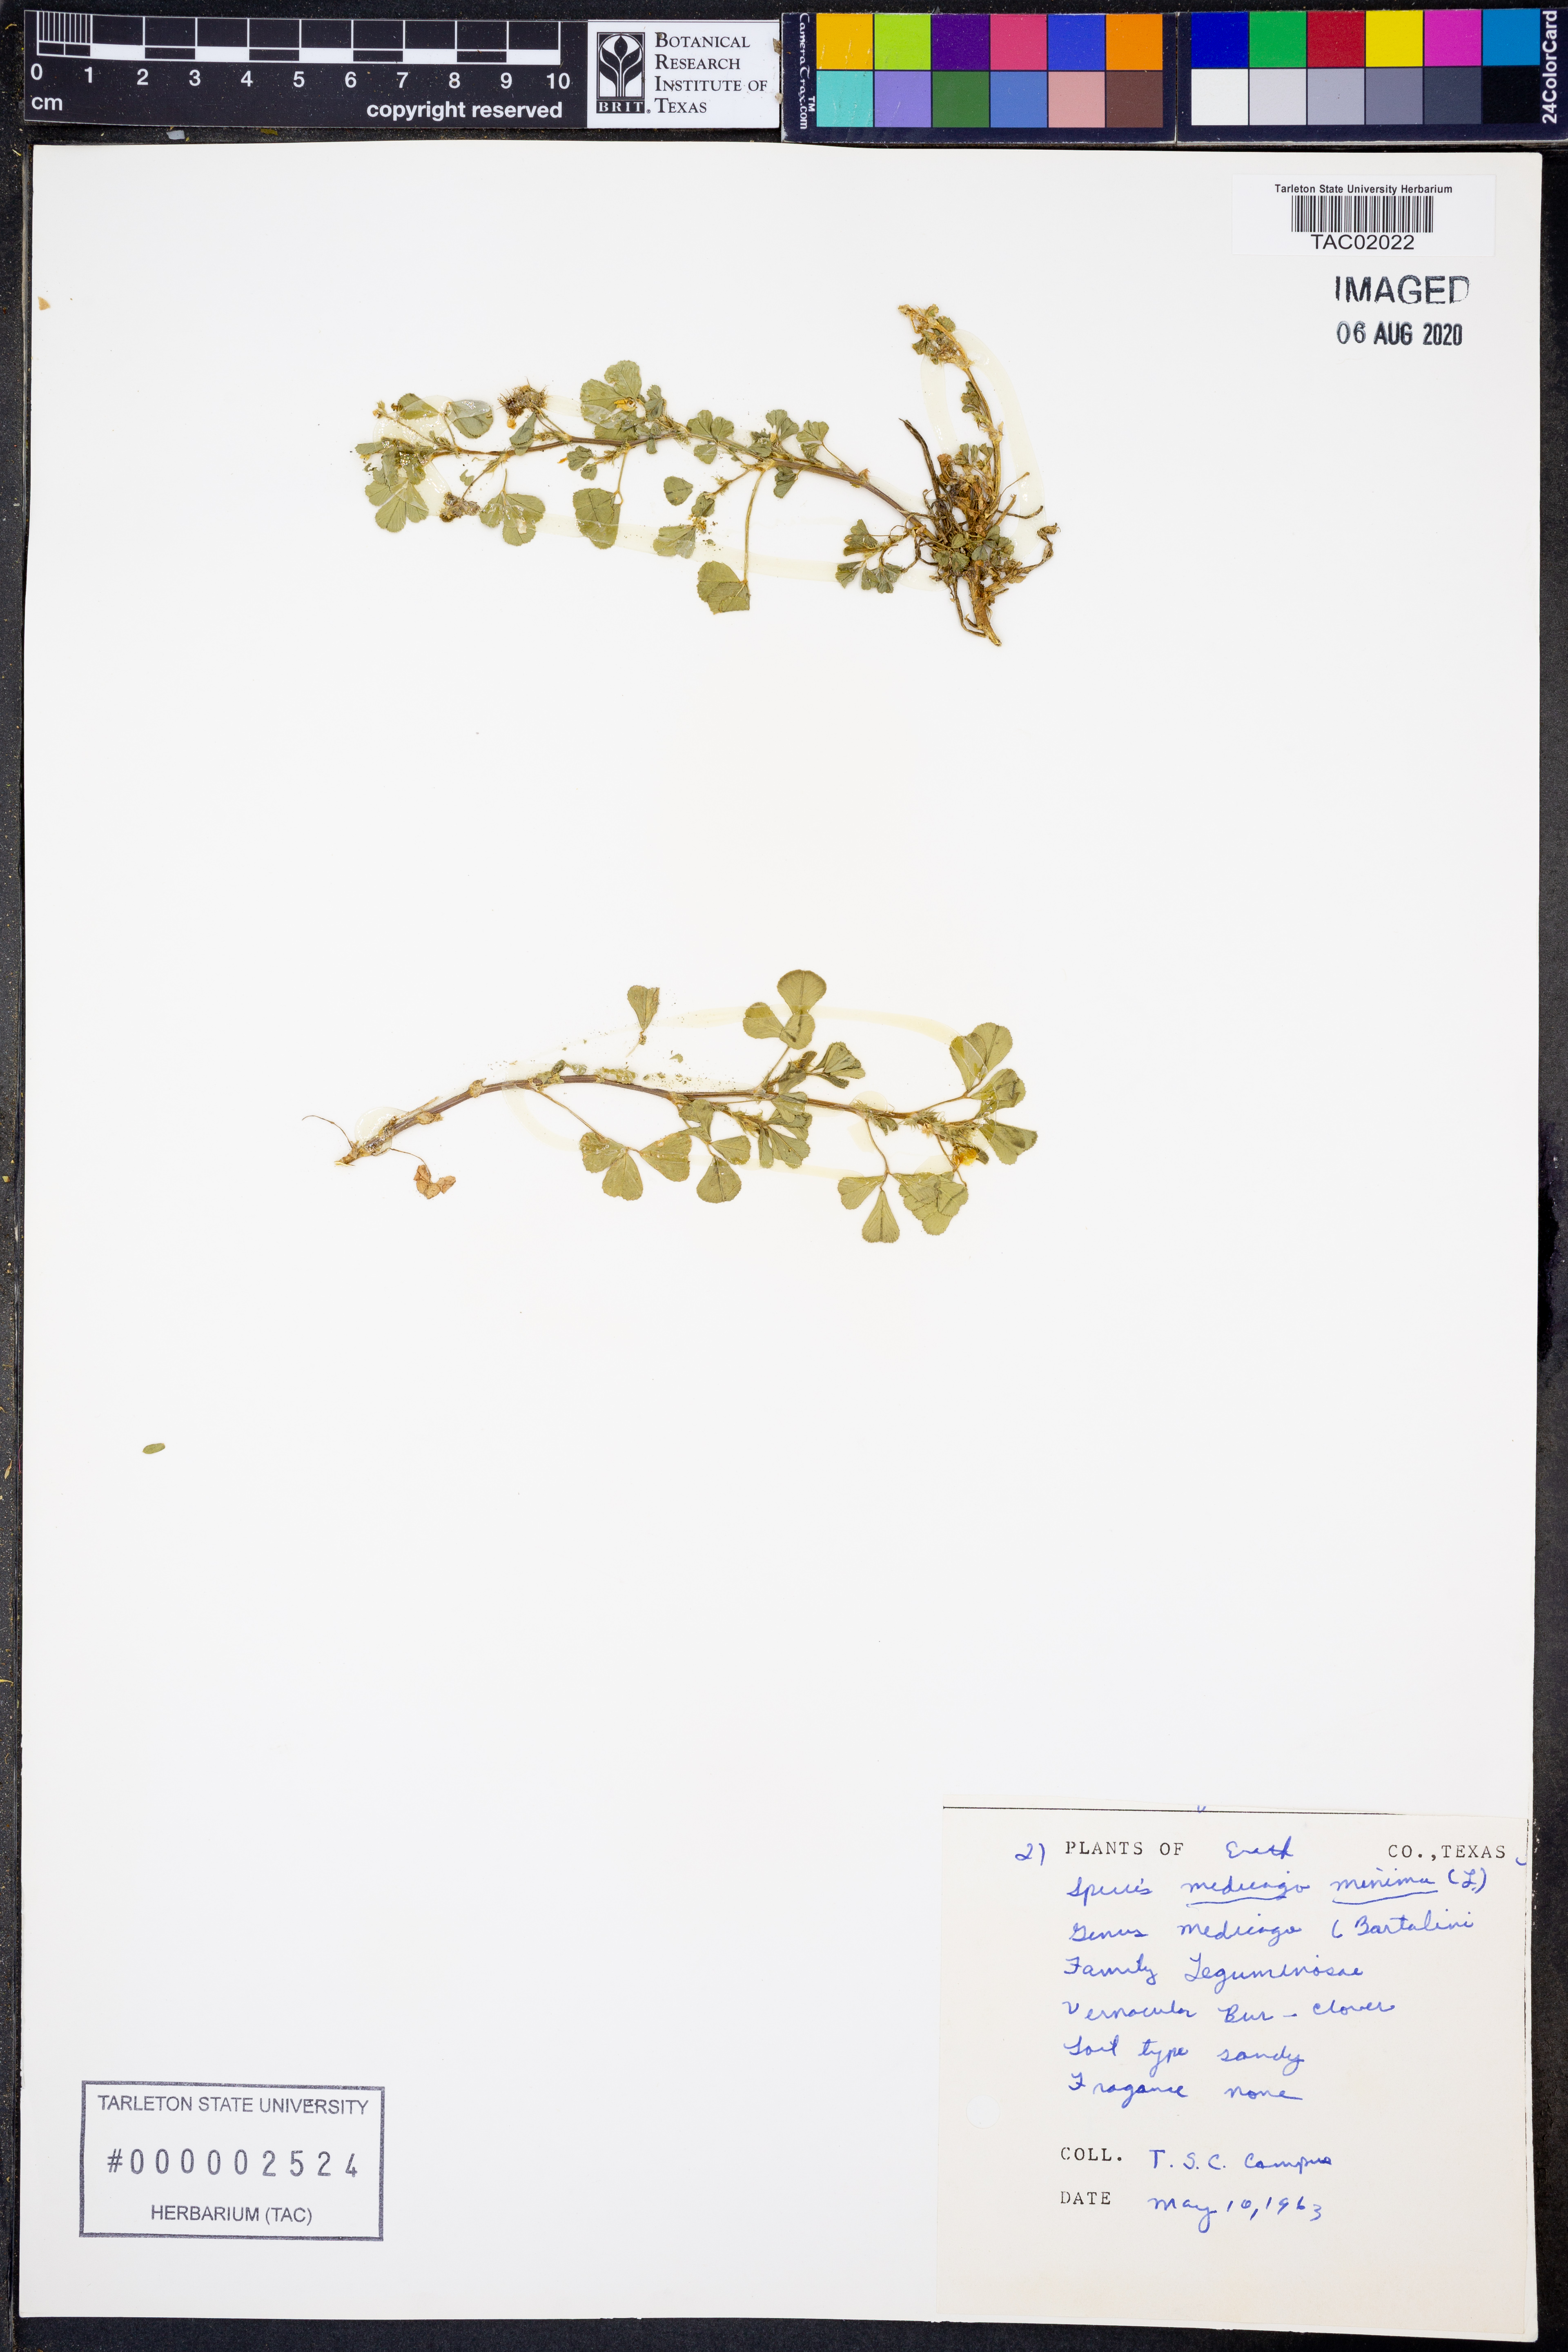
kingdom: Plantae
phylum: Tracheophyta
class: Magnoliopsida
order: Fabales
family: Fabaceae
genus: Medicago
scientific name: Medicago minima
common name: Little bur-clover
